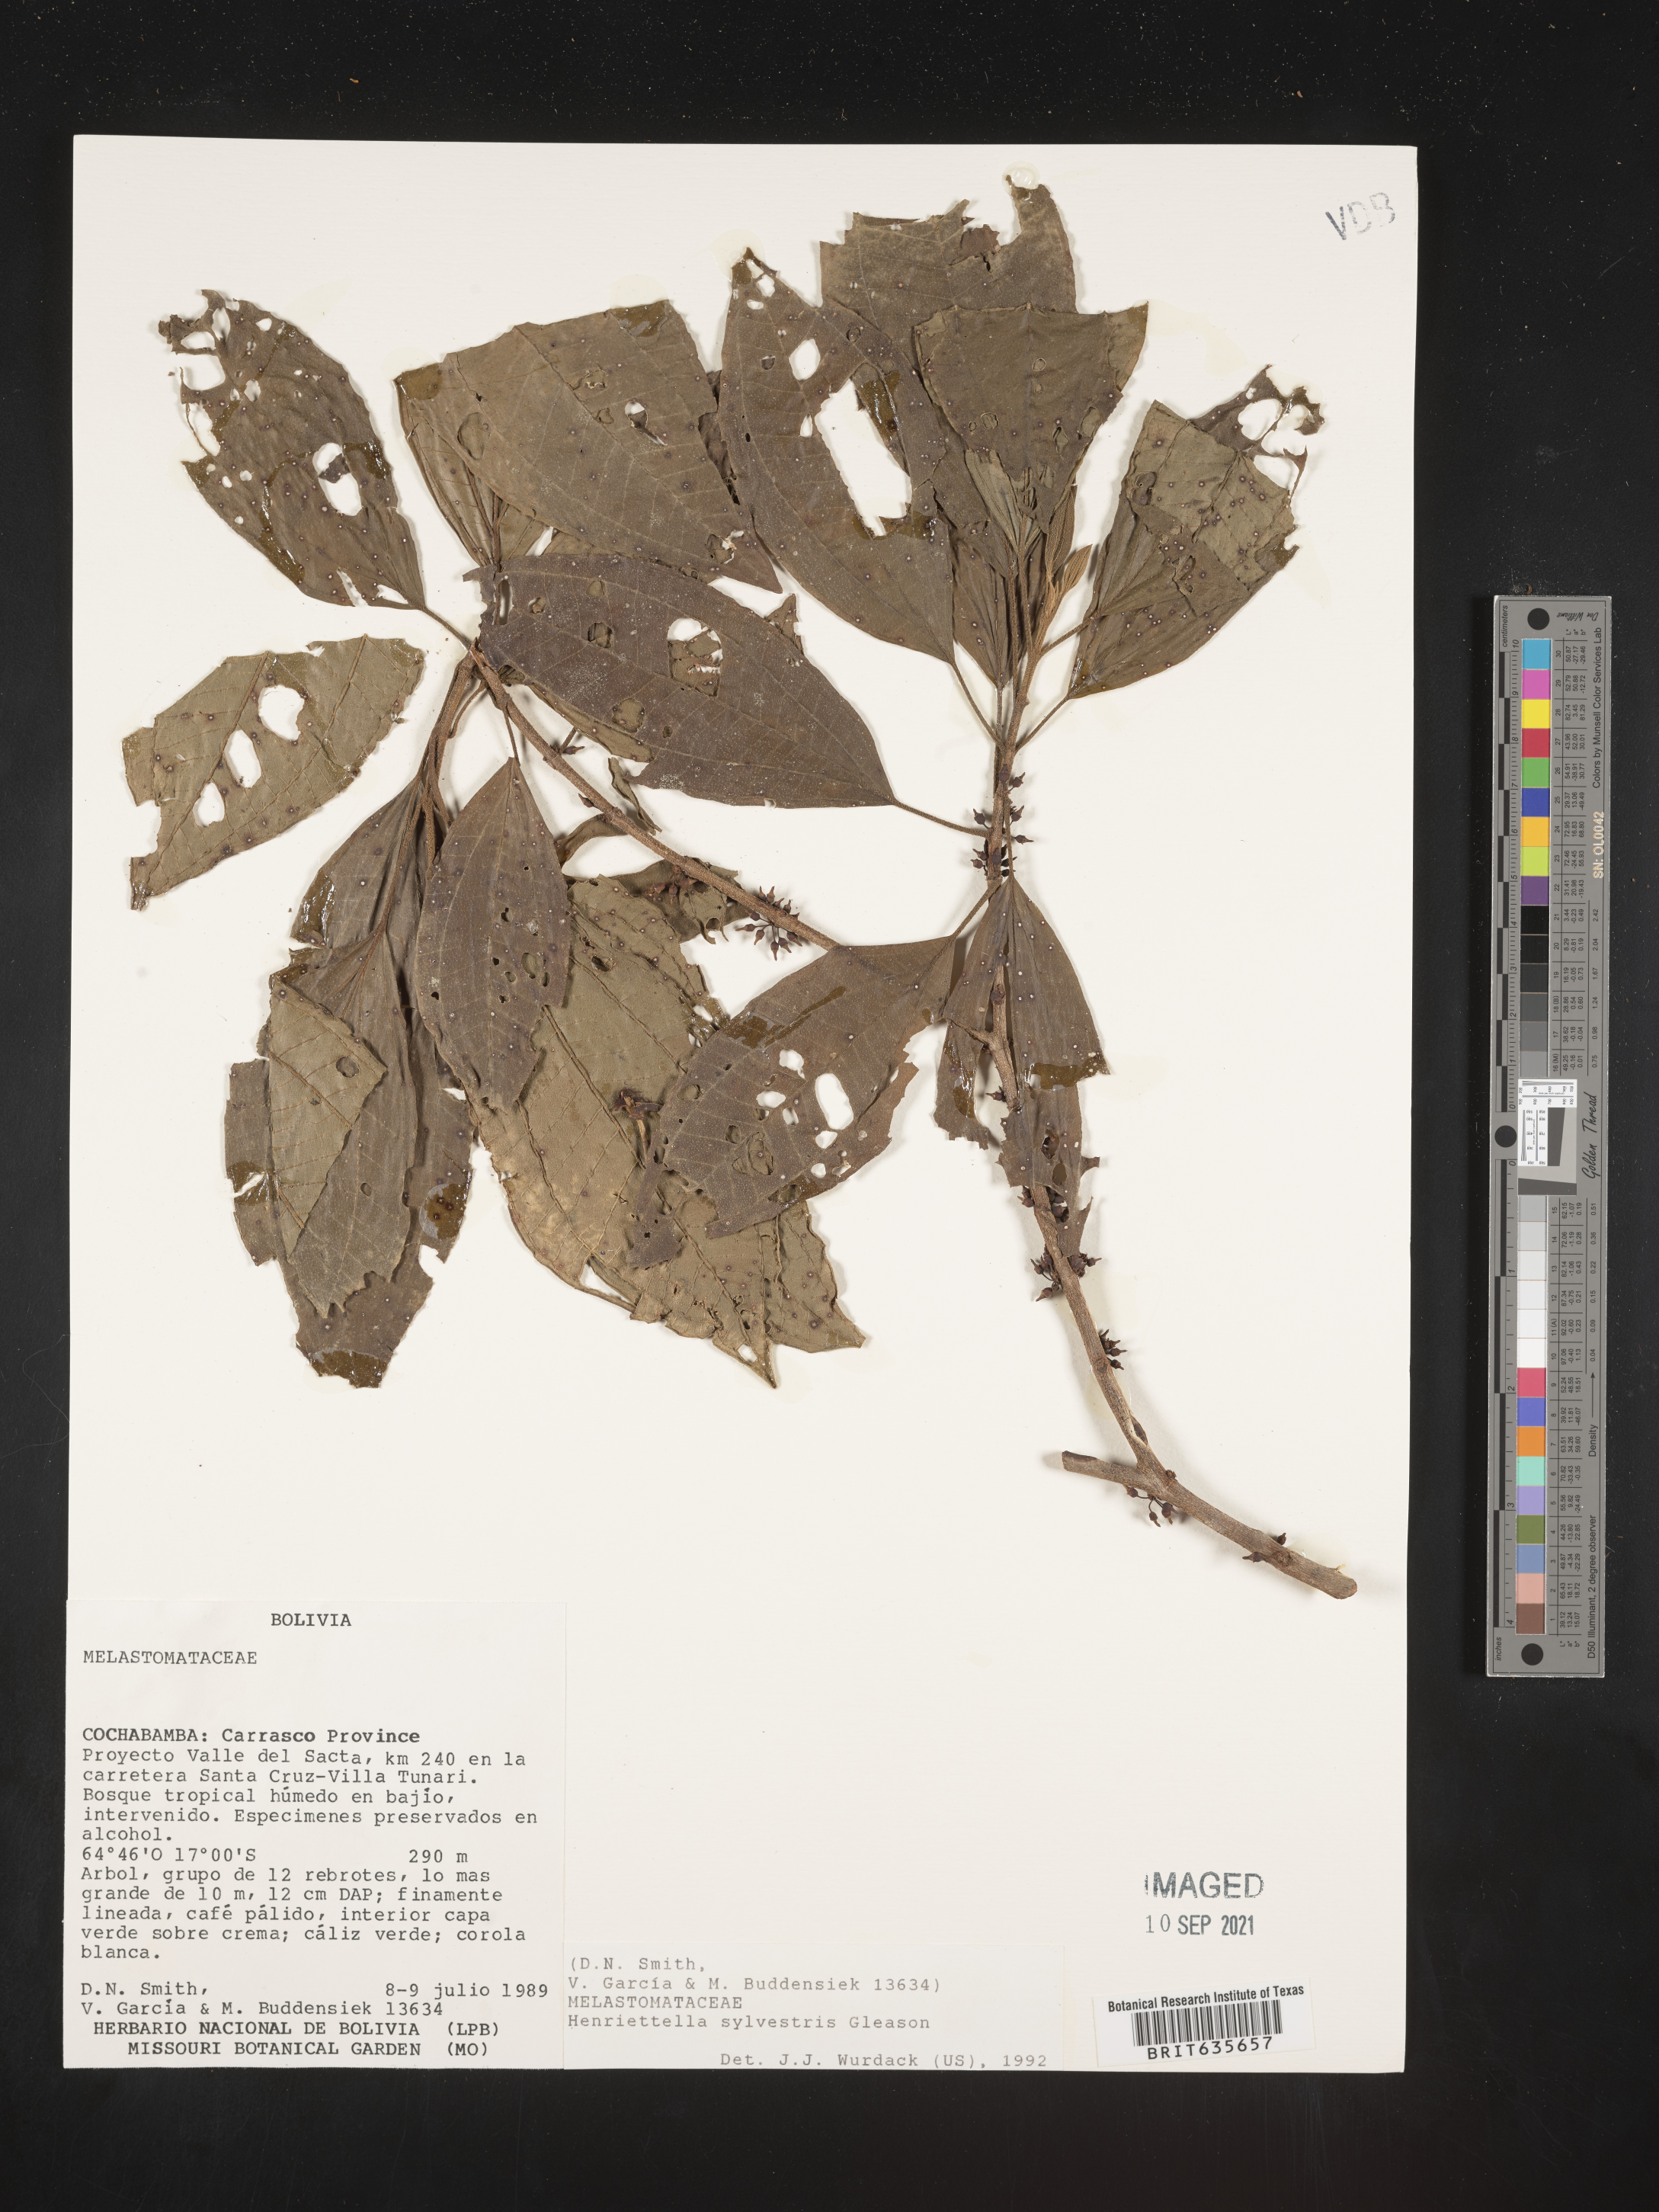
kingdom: Plantae
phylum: Tracheophyta
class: Magnoliopsida
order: Myrtales
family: Melastomataceae
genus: Henriettea
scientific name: Henriettea
